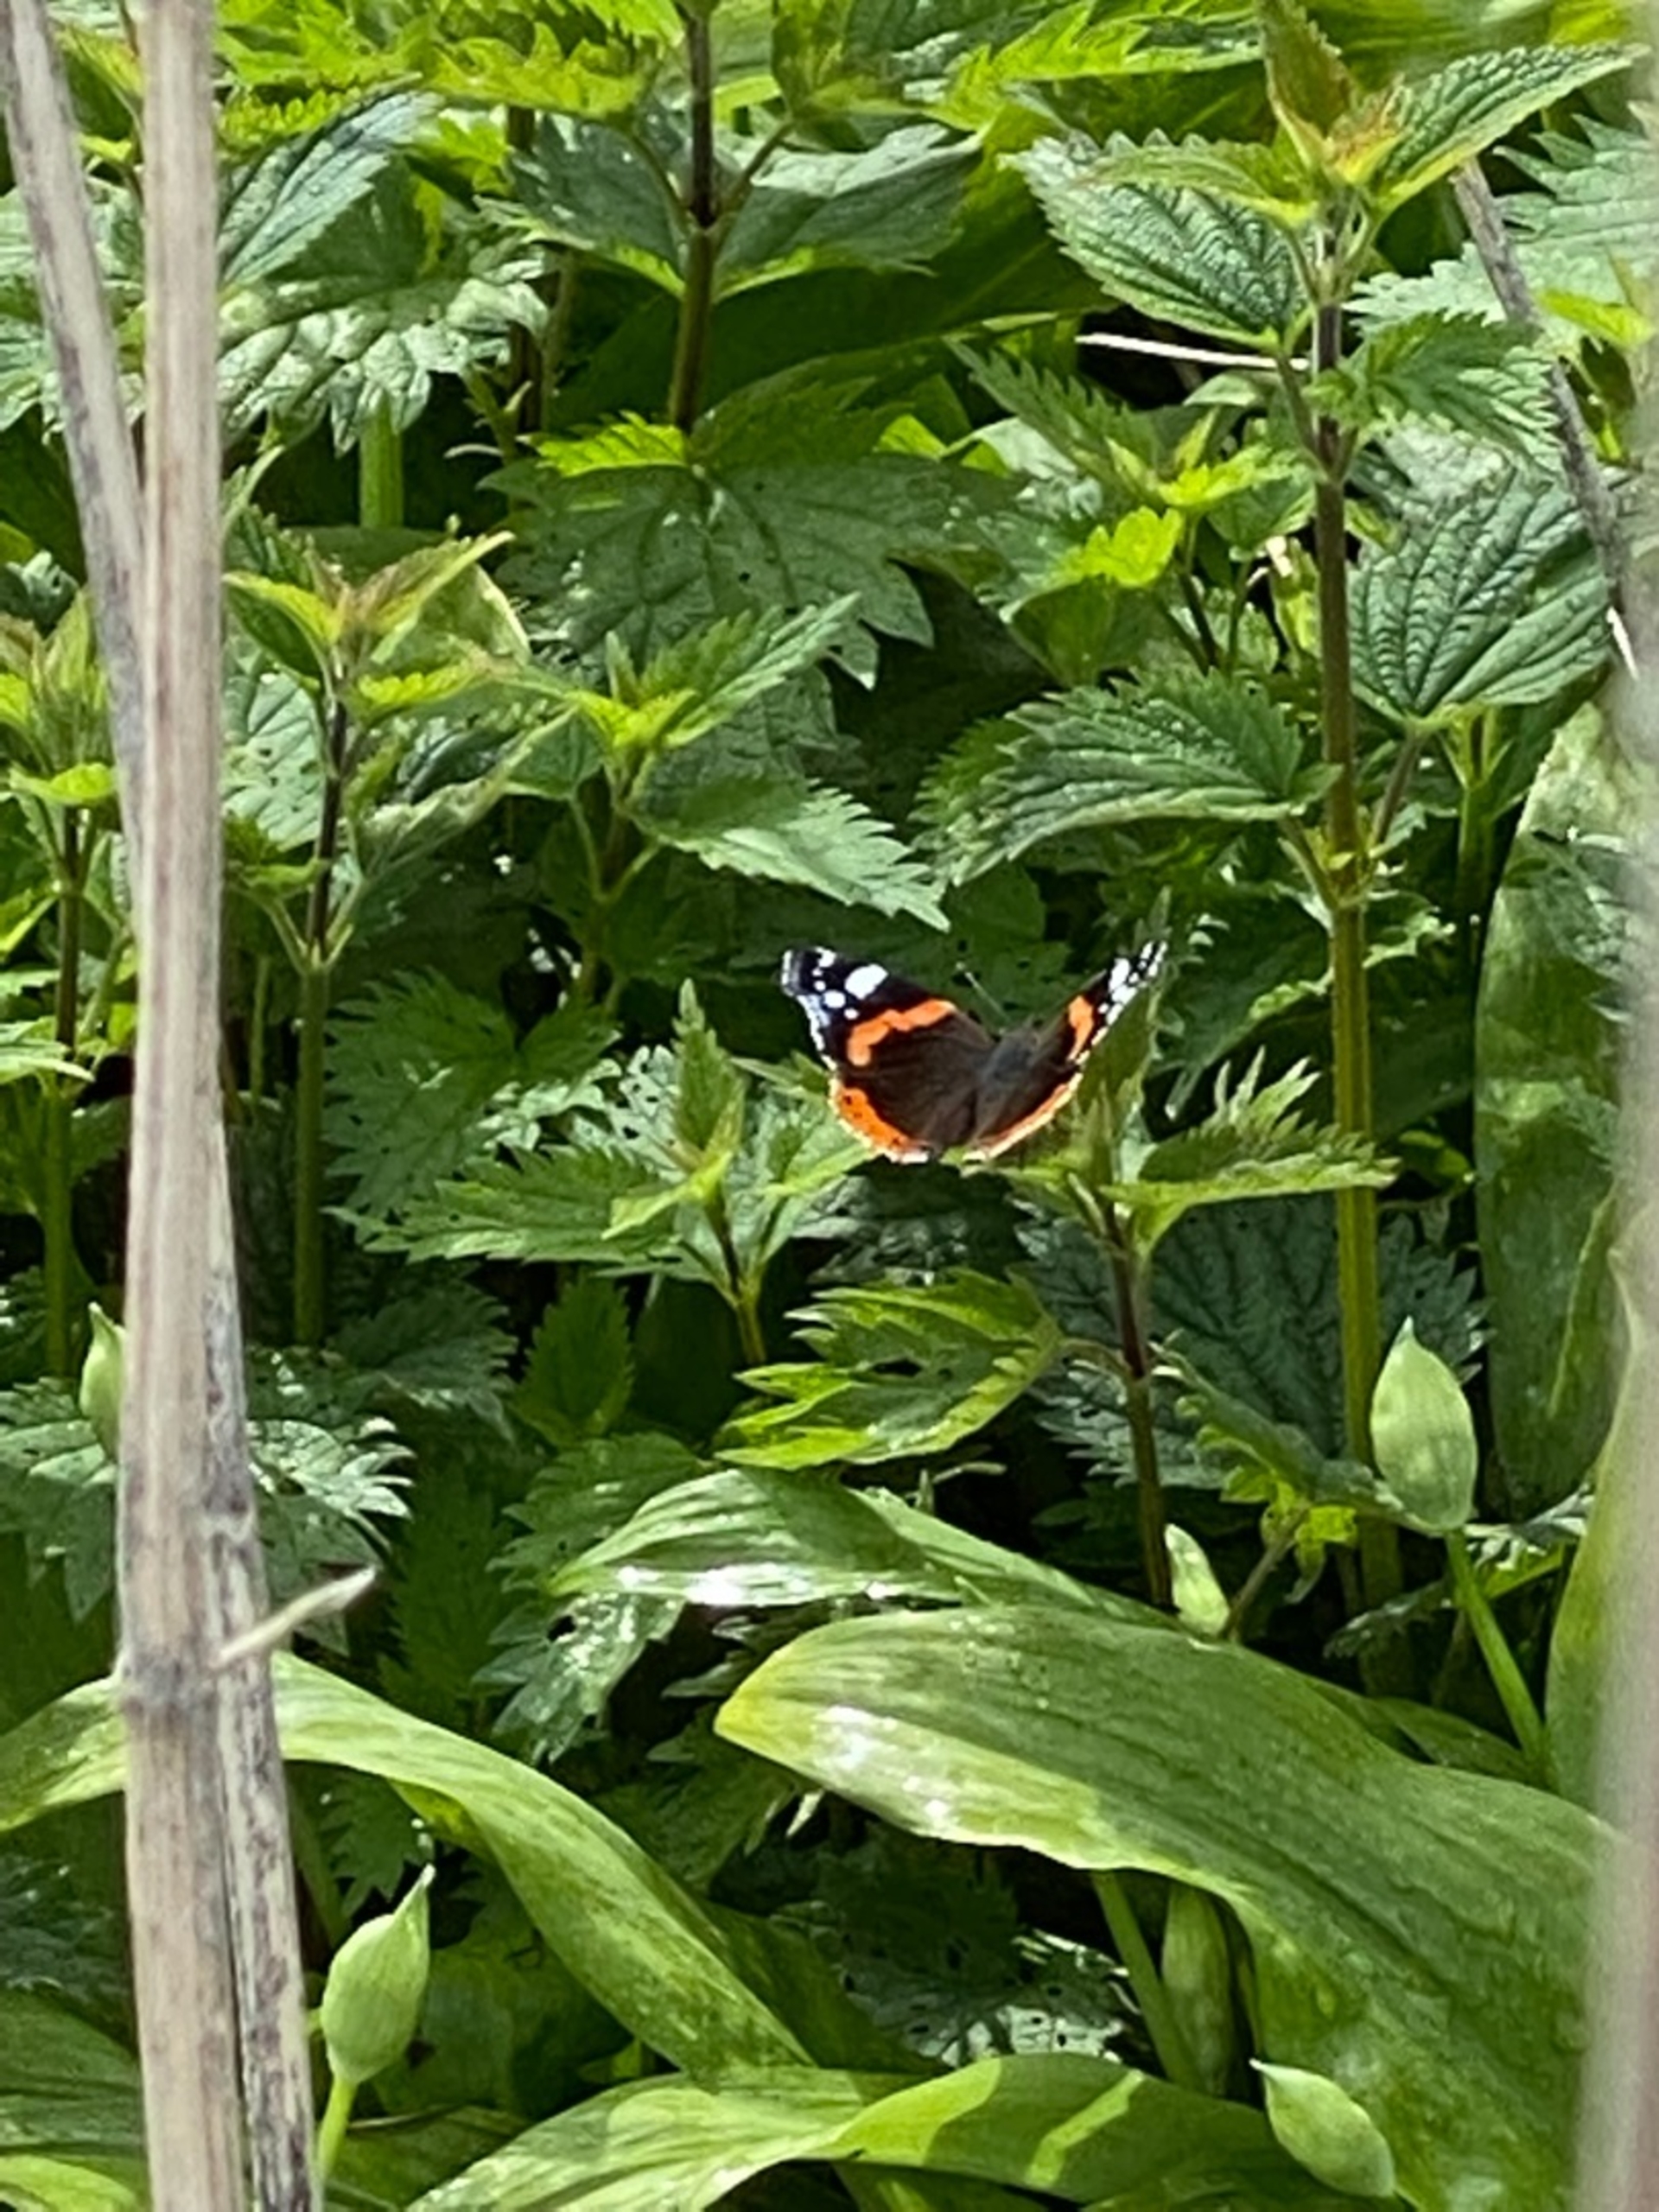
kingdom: Animalia
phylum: Arthropoda
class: Insecta
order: Lepidoptera
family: Nymphalidae
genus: Vanessa
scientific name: Vanessa atalanta
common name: Admiral
